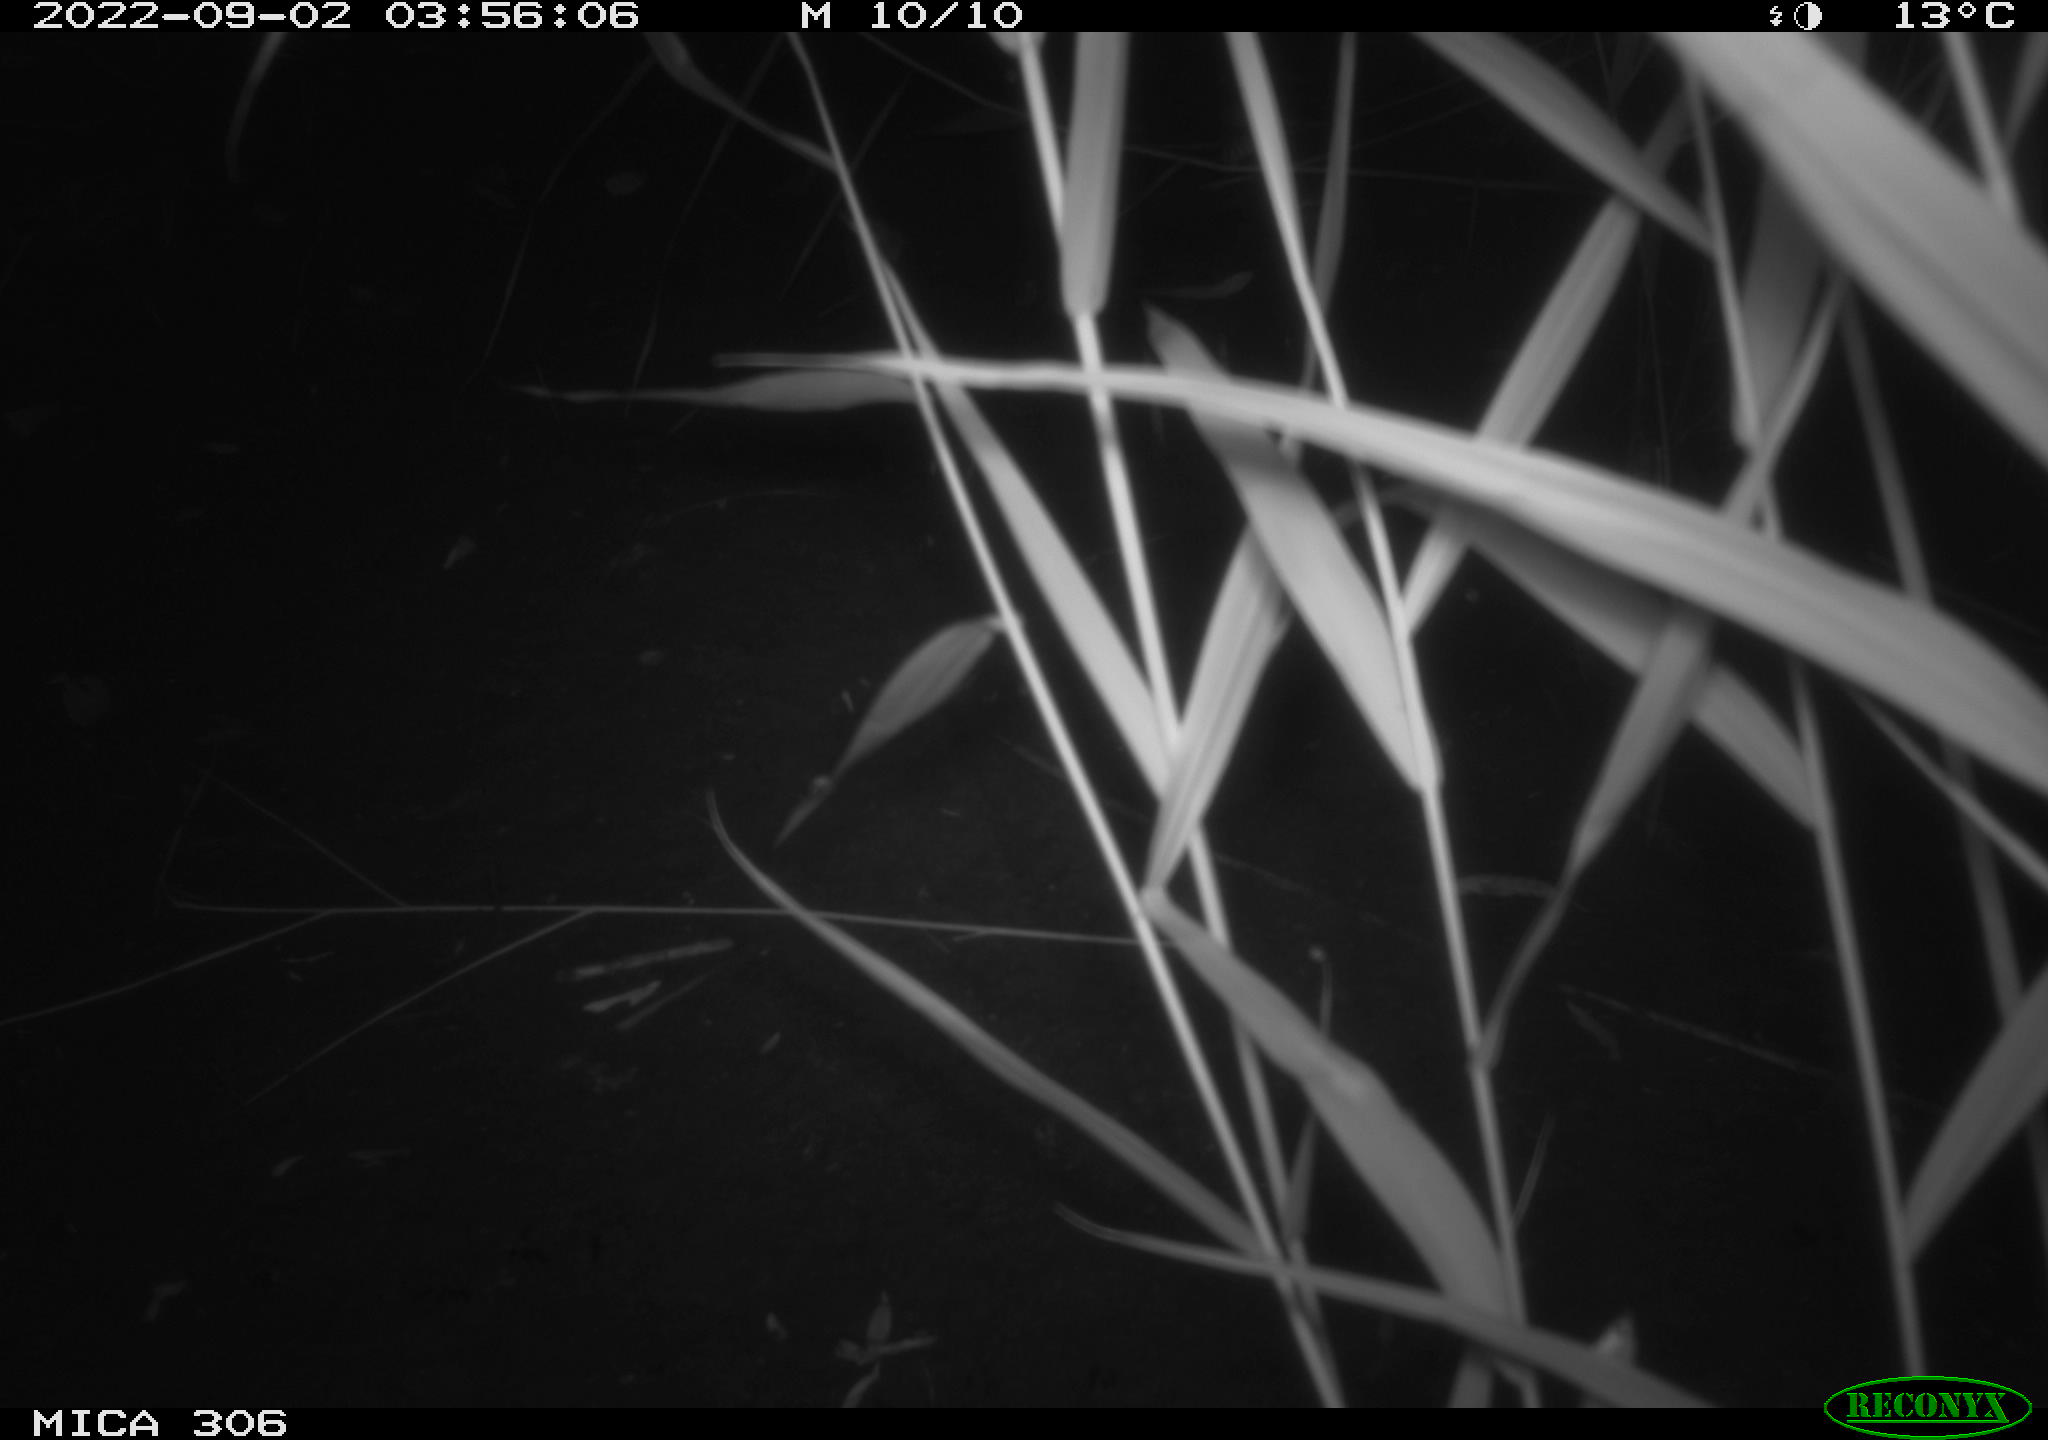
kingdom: Animalia
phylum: Chordata
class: Mammalia
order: Rodentia
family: Muridae
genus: Rattus
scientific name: Rattus norvegicus
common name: Brown rat
